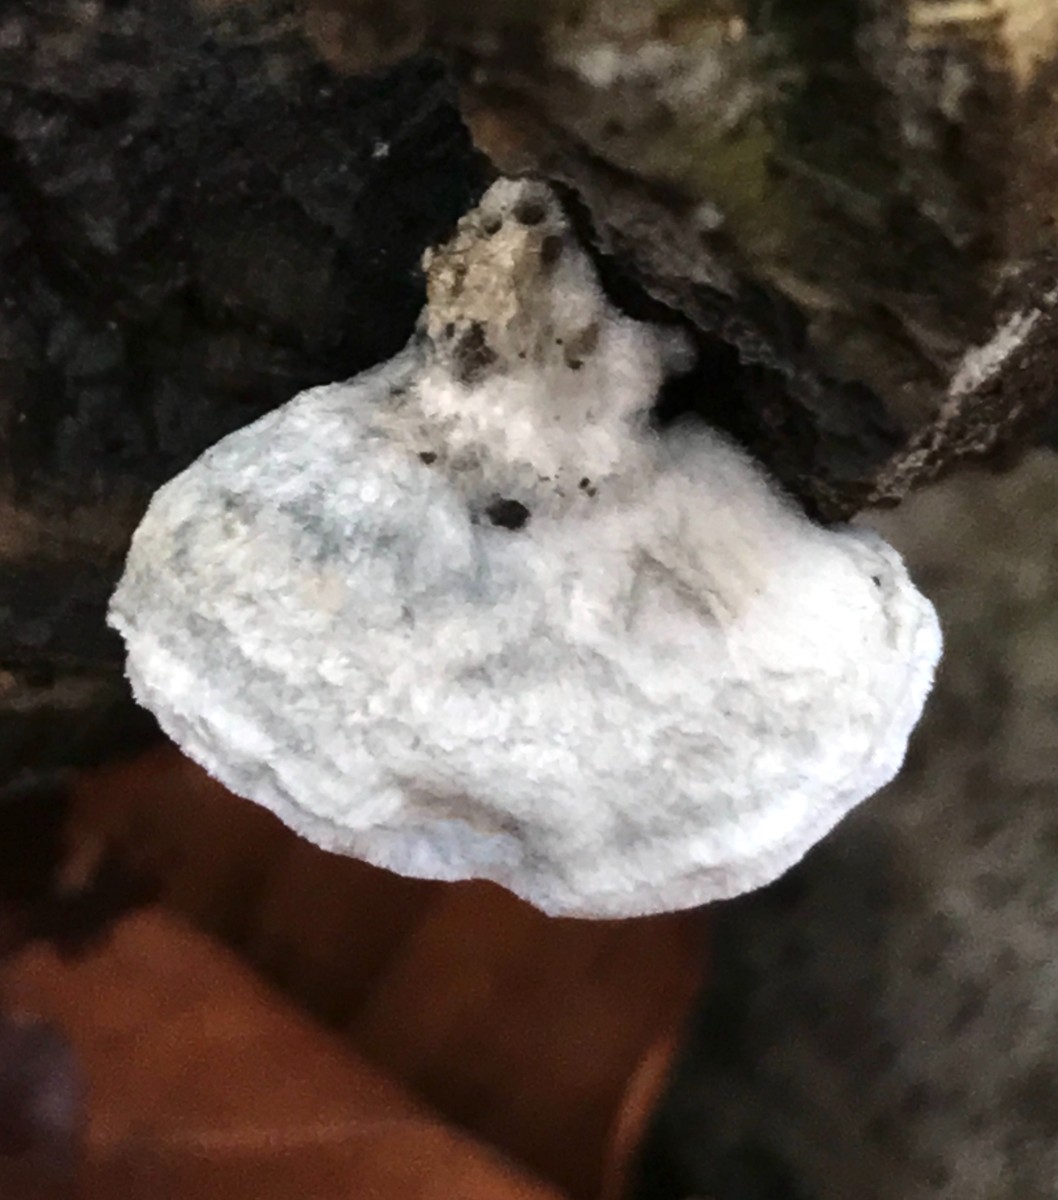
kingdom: Fungi
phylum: Basidiomycota
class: Agaricomycetes
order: Polyporales
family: Polyporaceae
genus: Cyanosporus
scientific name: Cyanosporus alni
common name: blegblå kødporesvamp
